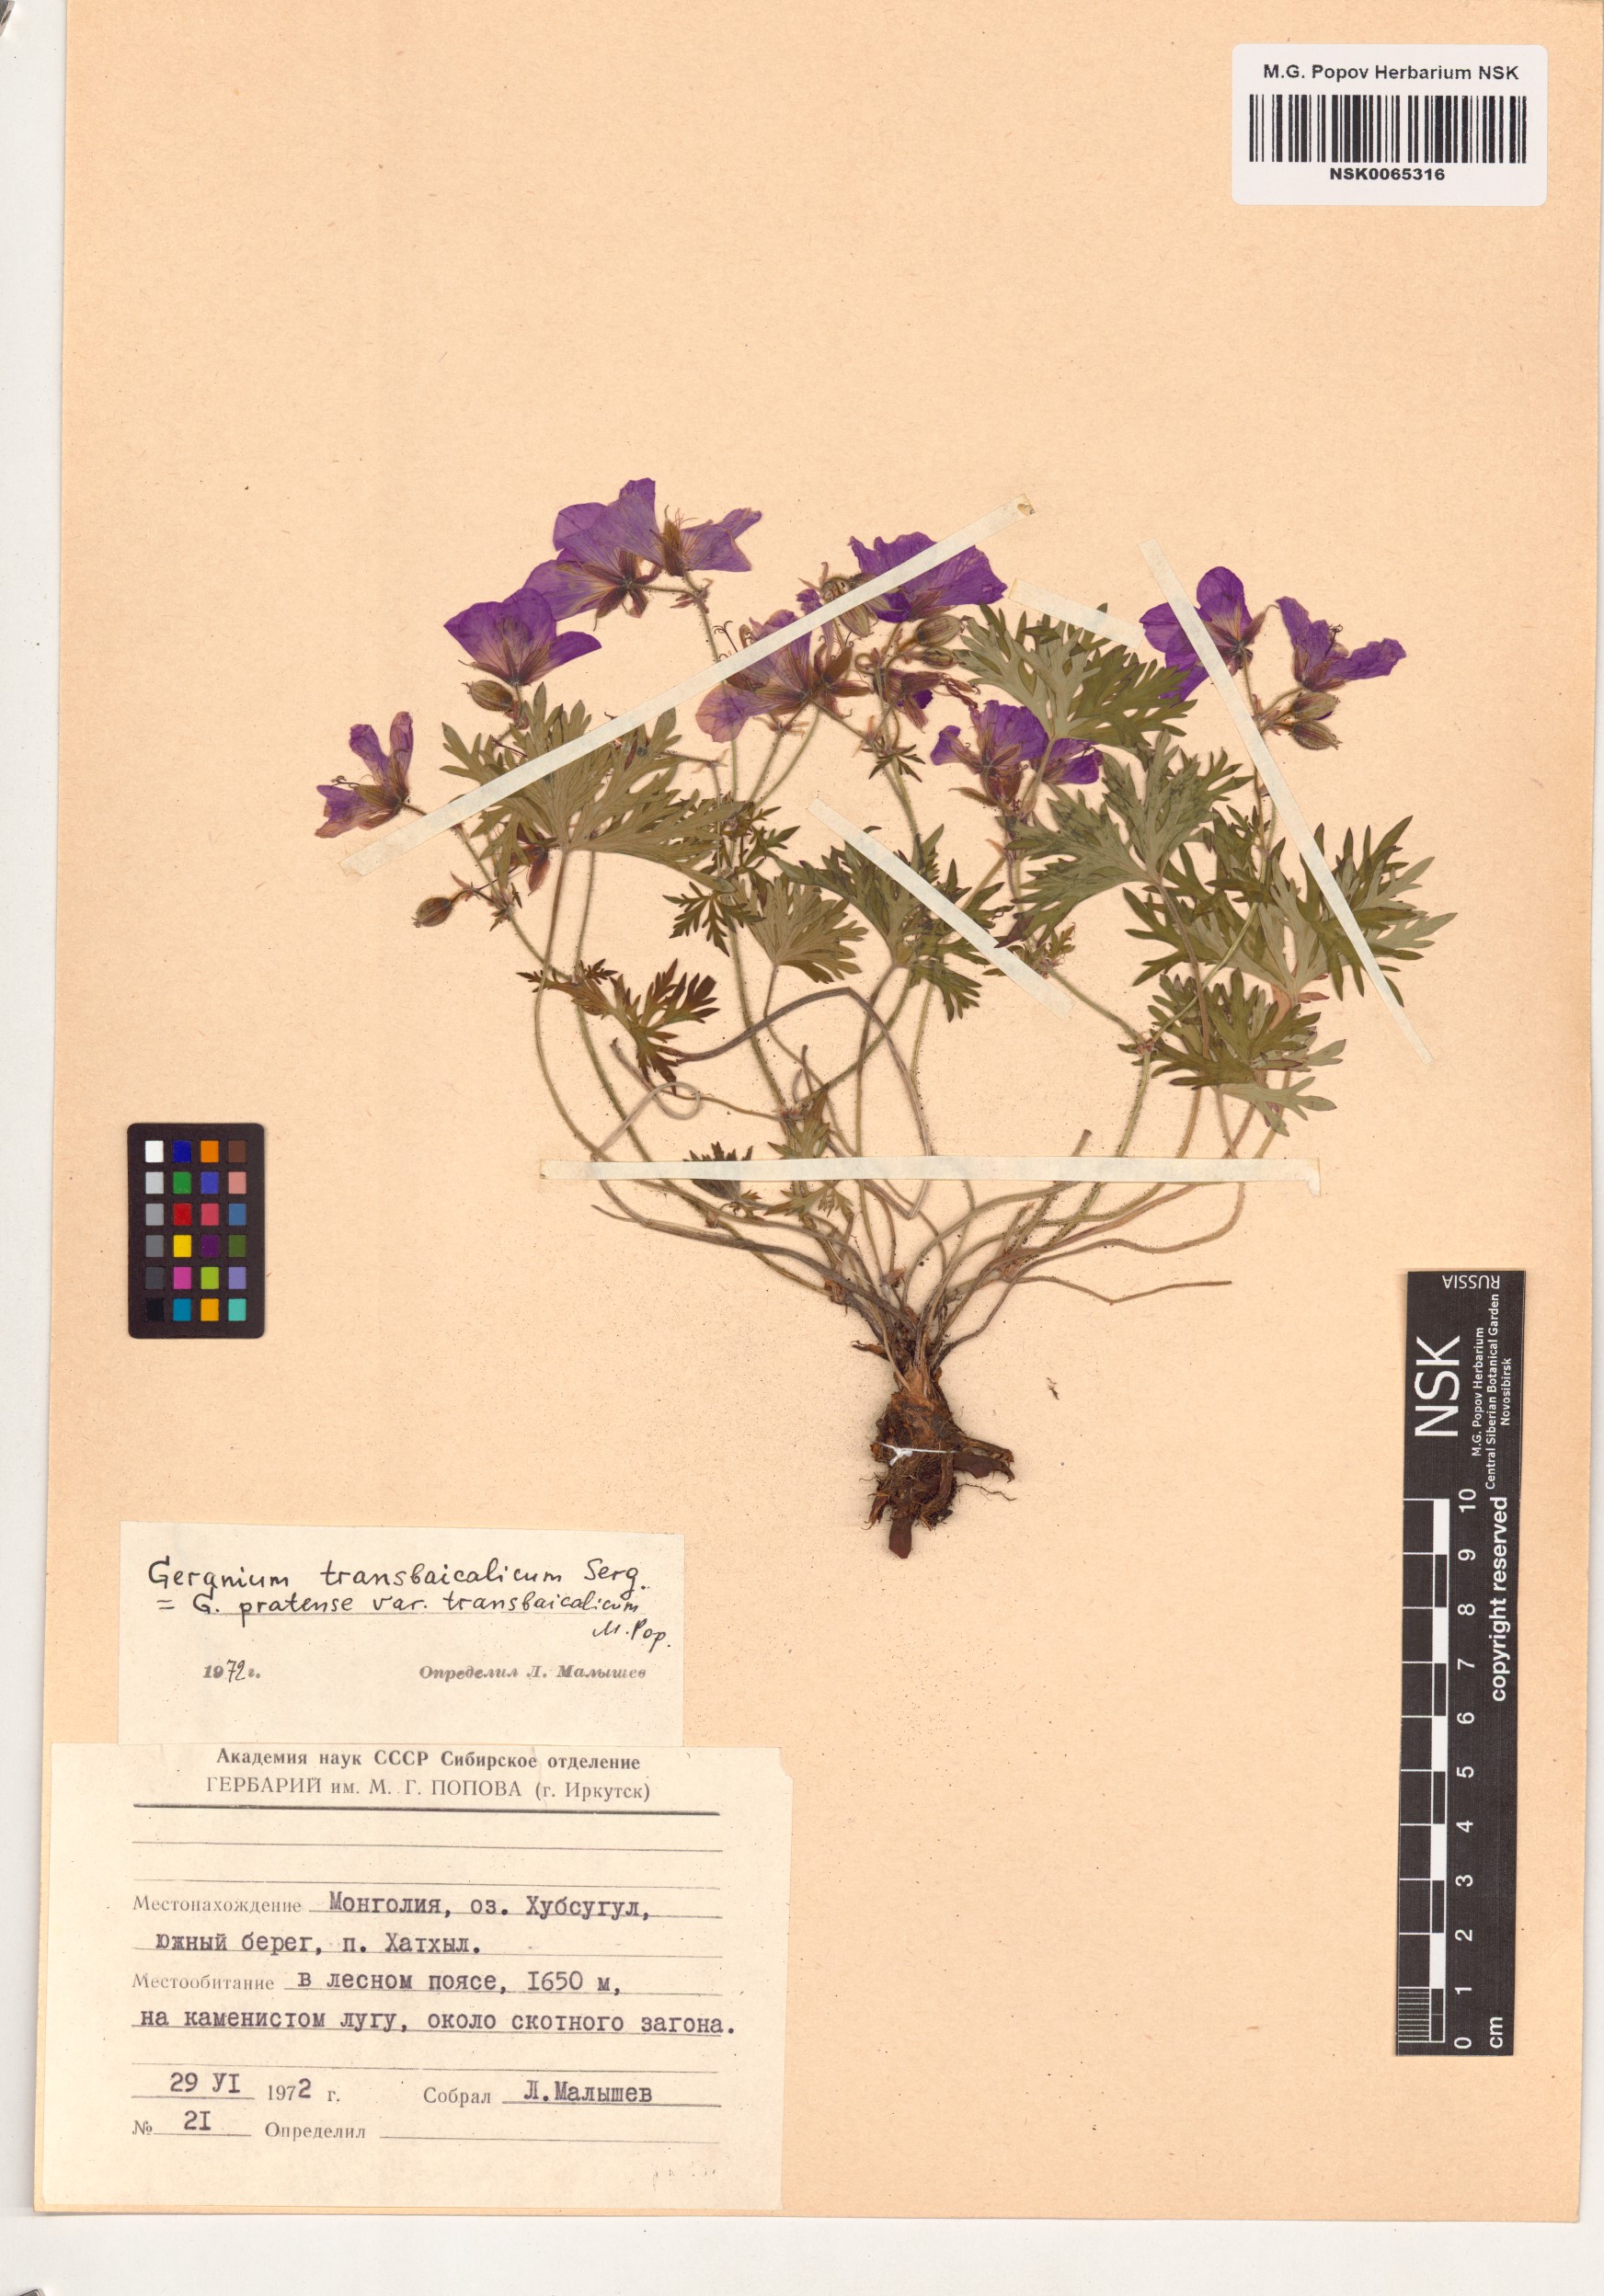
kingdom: Plantae
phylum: Tracheophyta
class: Magnoliopsida
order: Geraniales
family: Geraniaceae
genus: Geranium
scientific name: Geranium pratense
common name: Meadow crane's-bill
